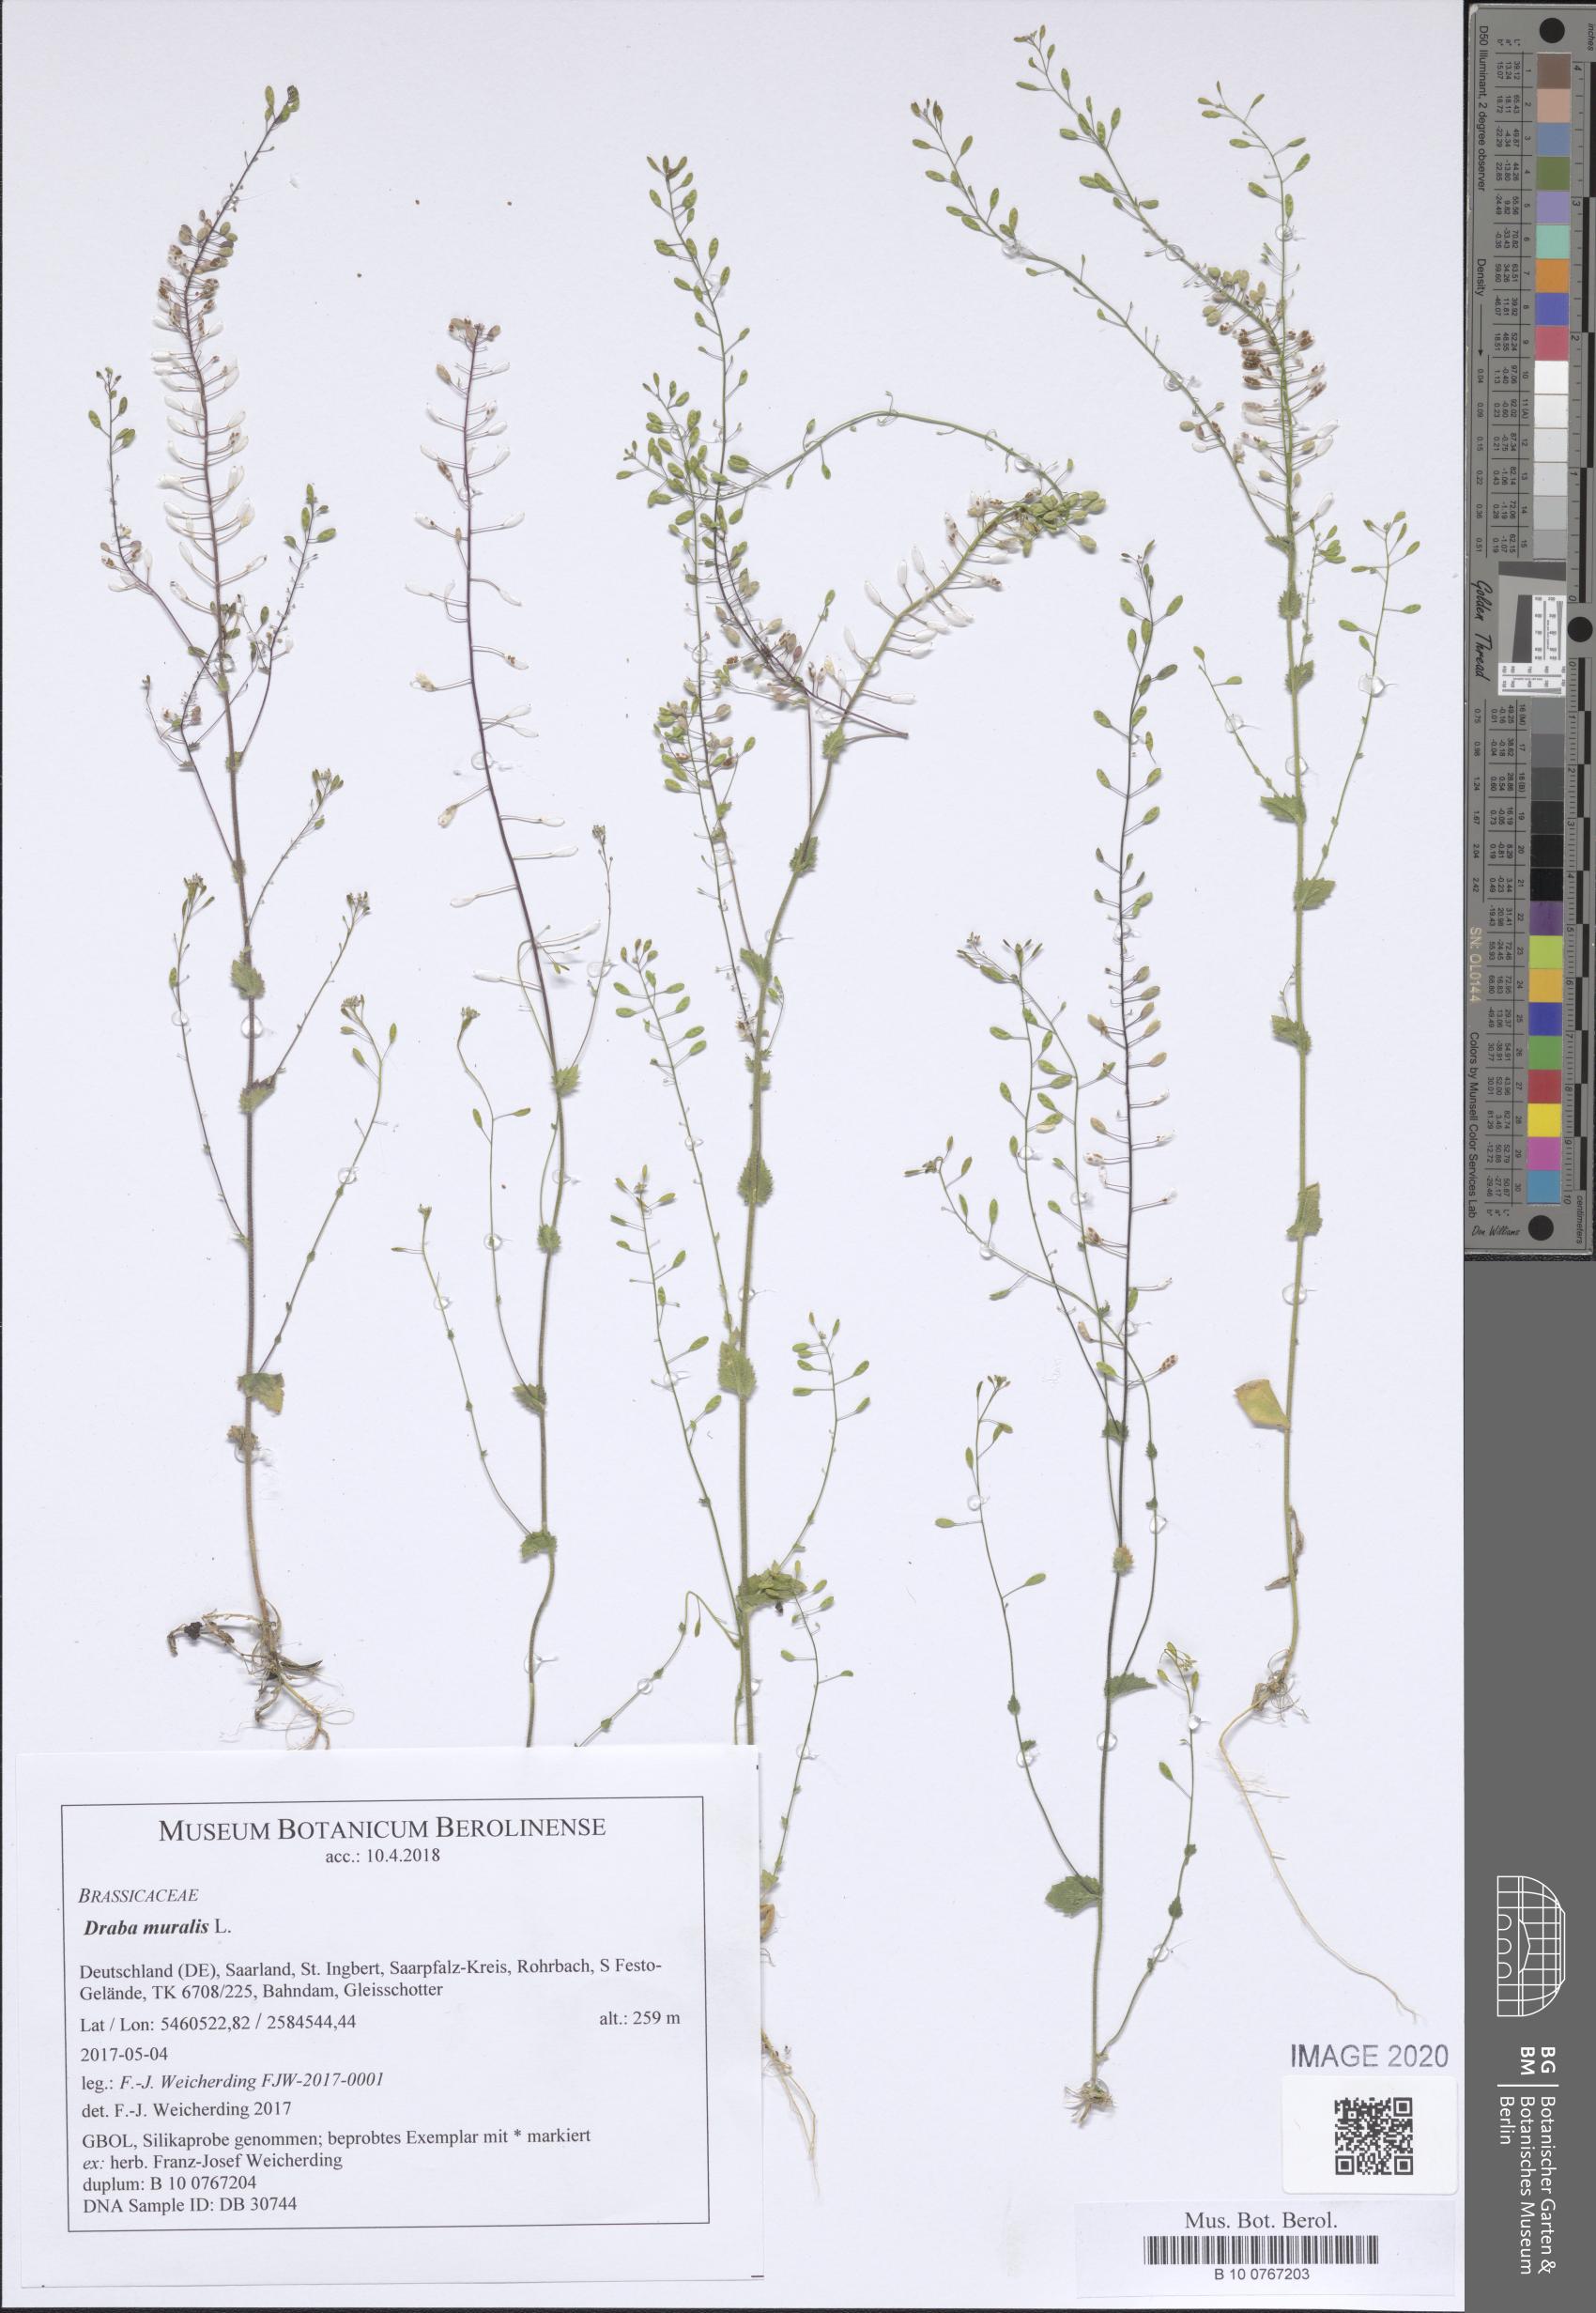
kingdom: Plantae
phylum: Tracheophyta
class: Magnoliopsida
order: Brassicales
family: Brassicaceae
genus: Drabella
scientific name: Drabella muralis
